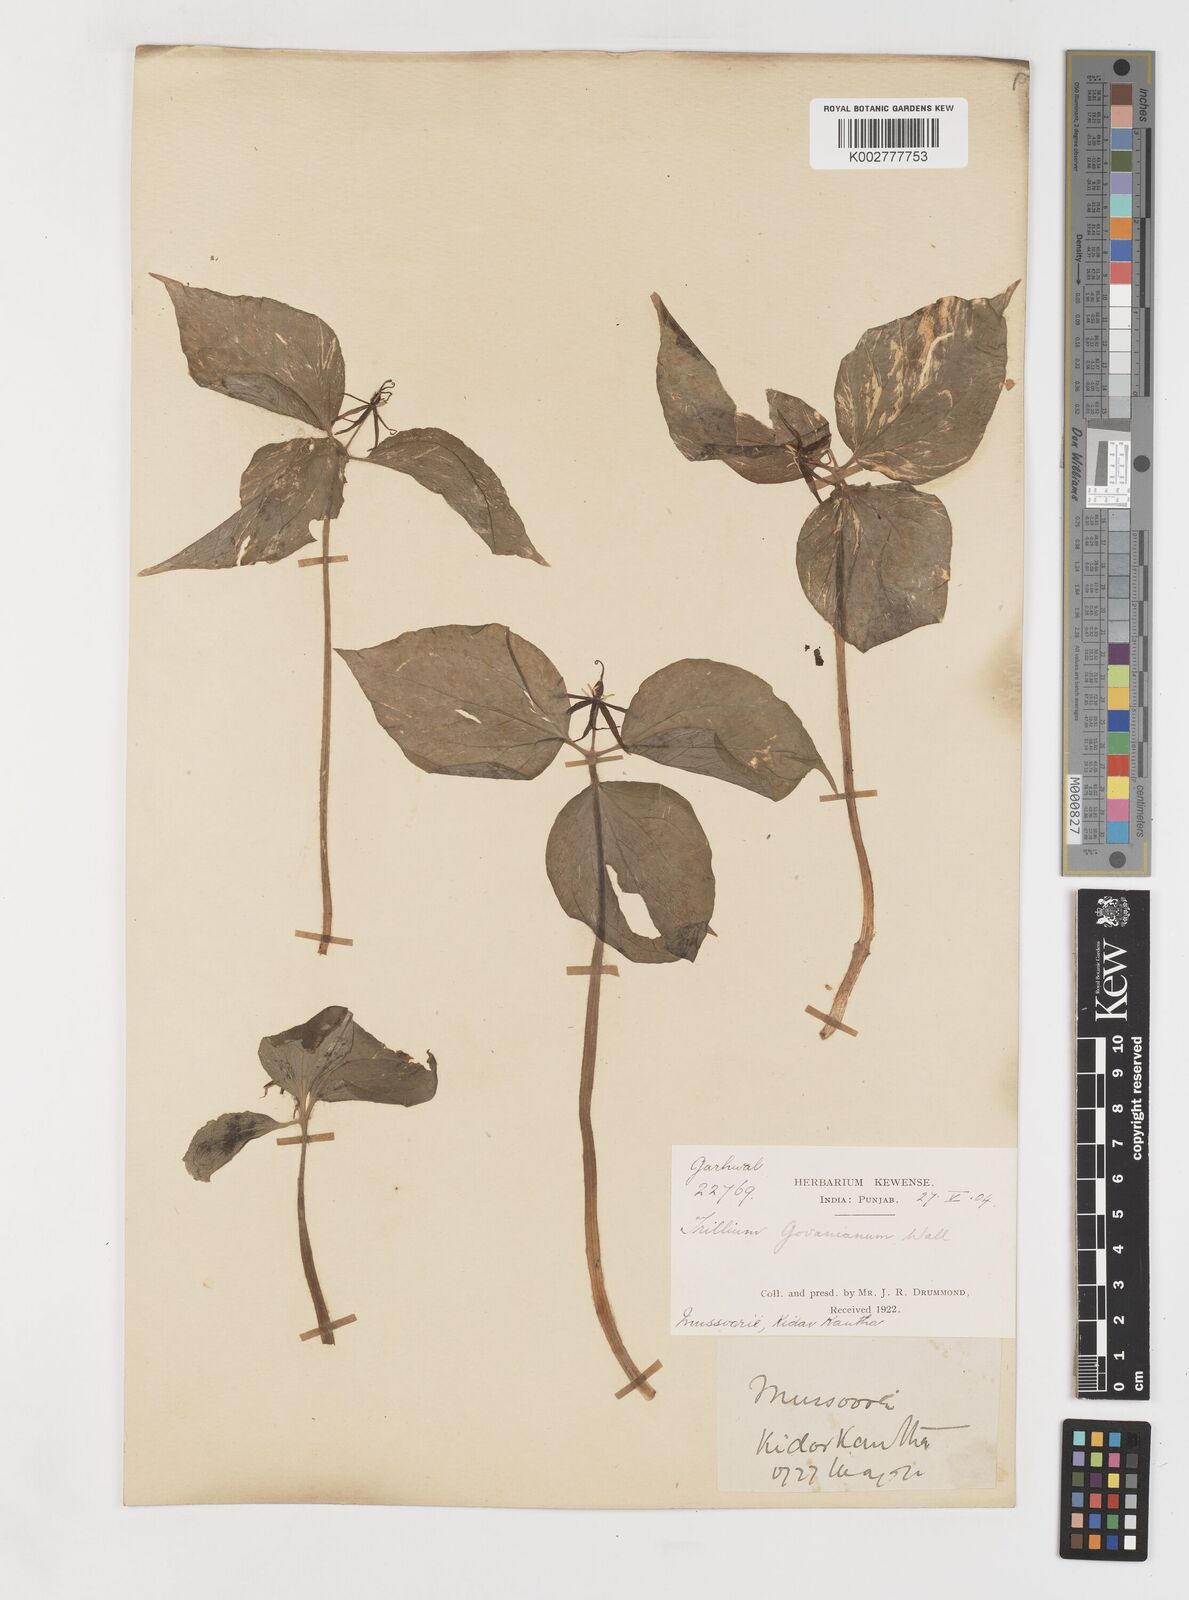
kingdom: Plantae
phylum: Tracheophyta
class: Liliopsida
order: Liliales
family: Melanthiaceae
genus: Trillium
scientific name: Trillium govanianum
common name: Himalayan trillium
